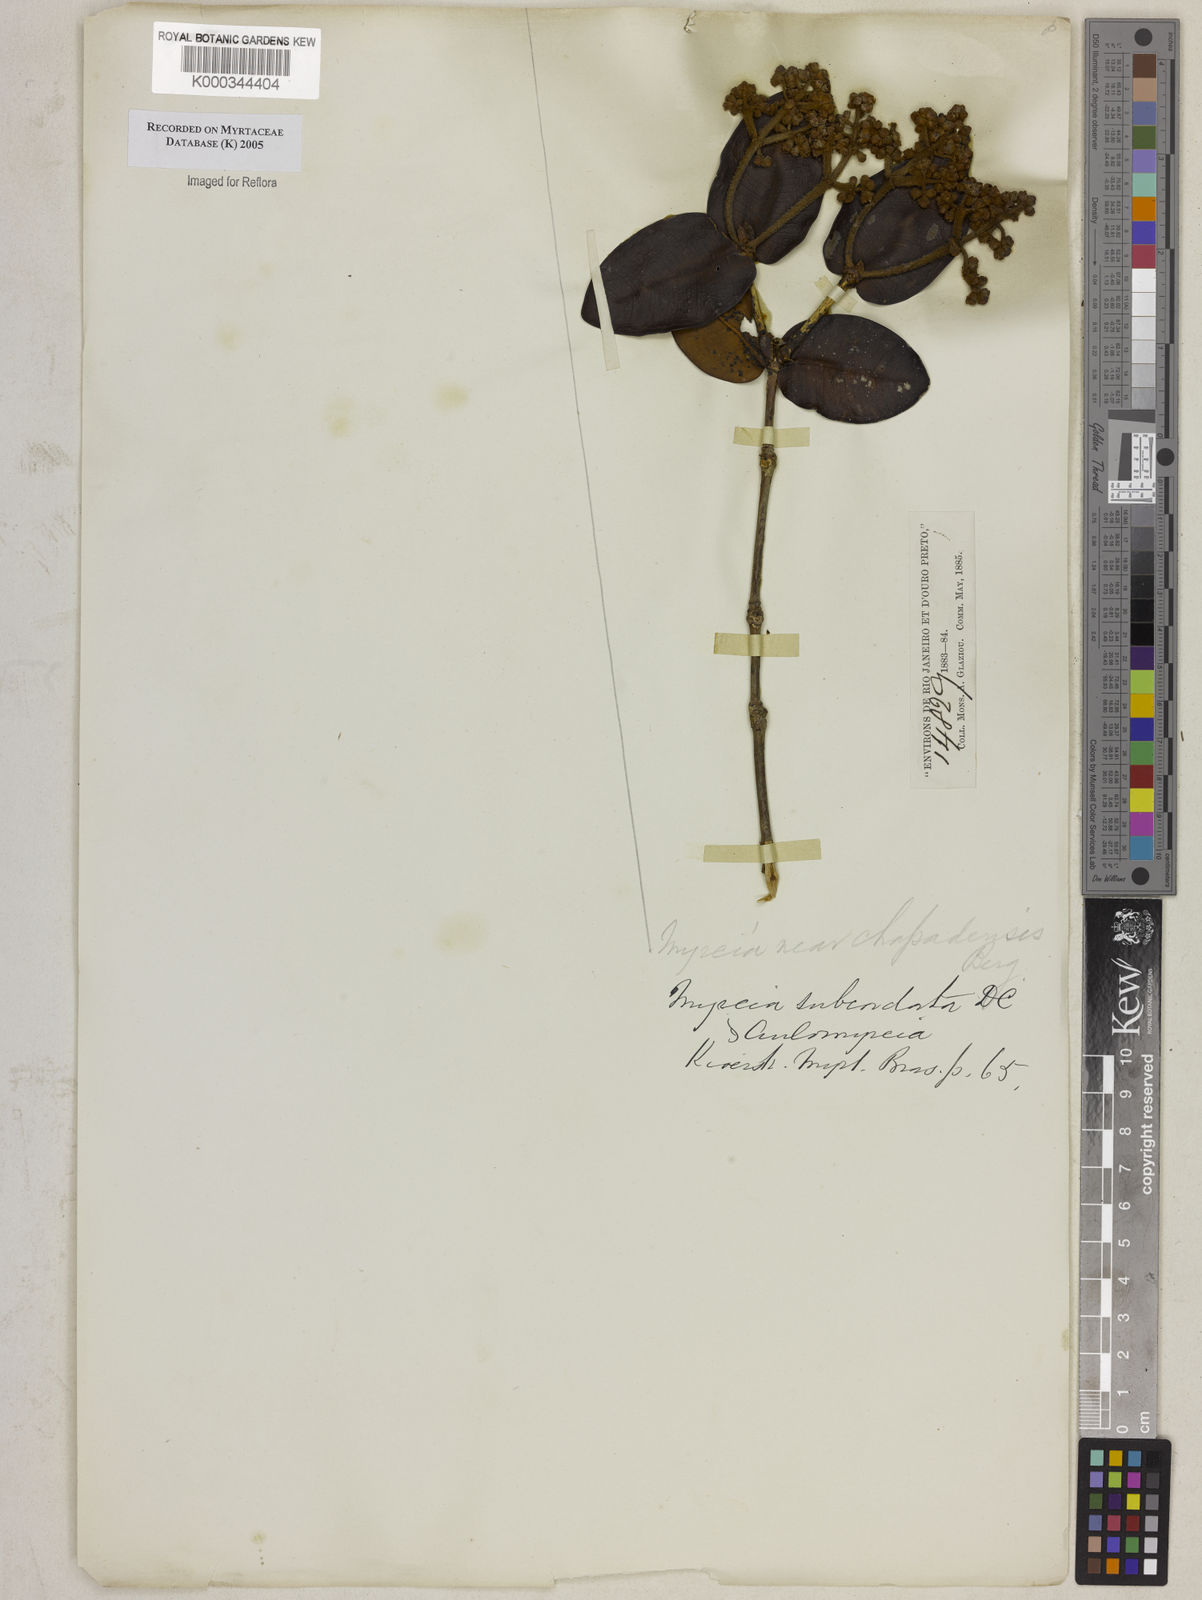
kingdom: Plantae
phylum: Tracheophyta
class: Magnoliopsida
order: Myrtales
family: Myrtaceae
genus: Myrcia
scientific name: Myrcia subcordata
